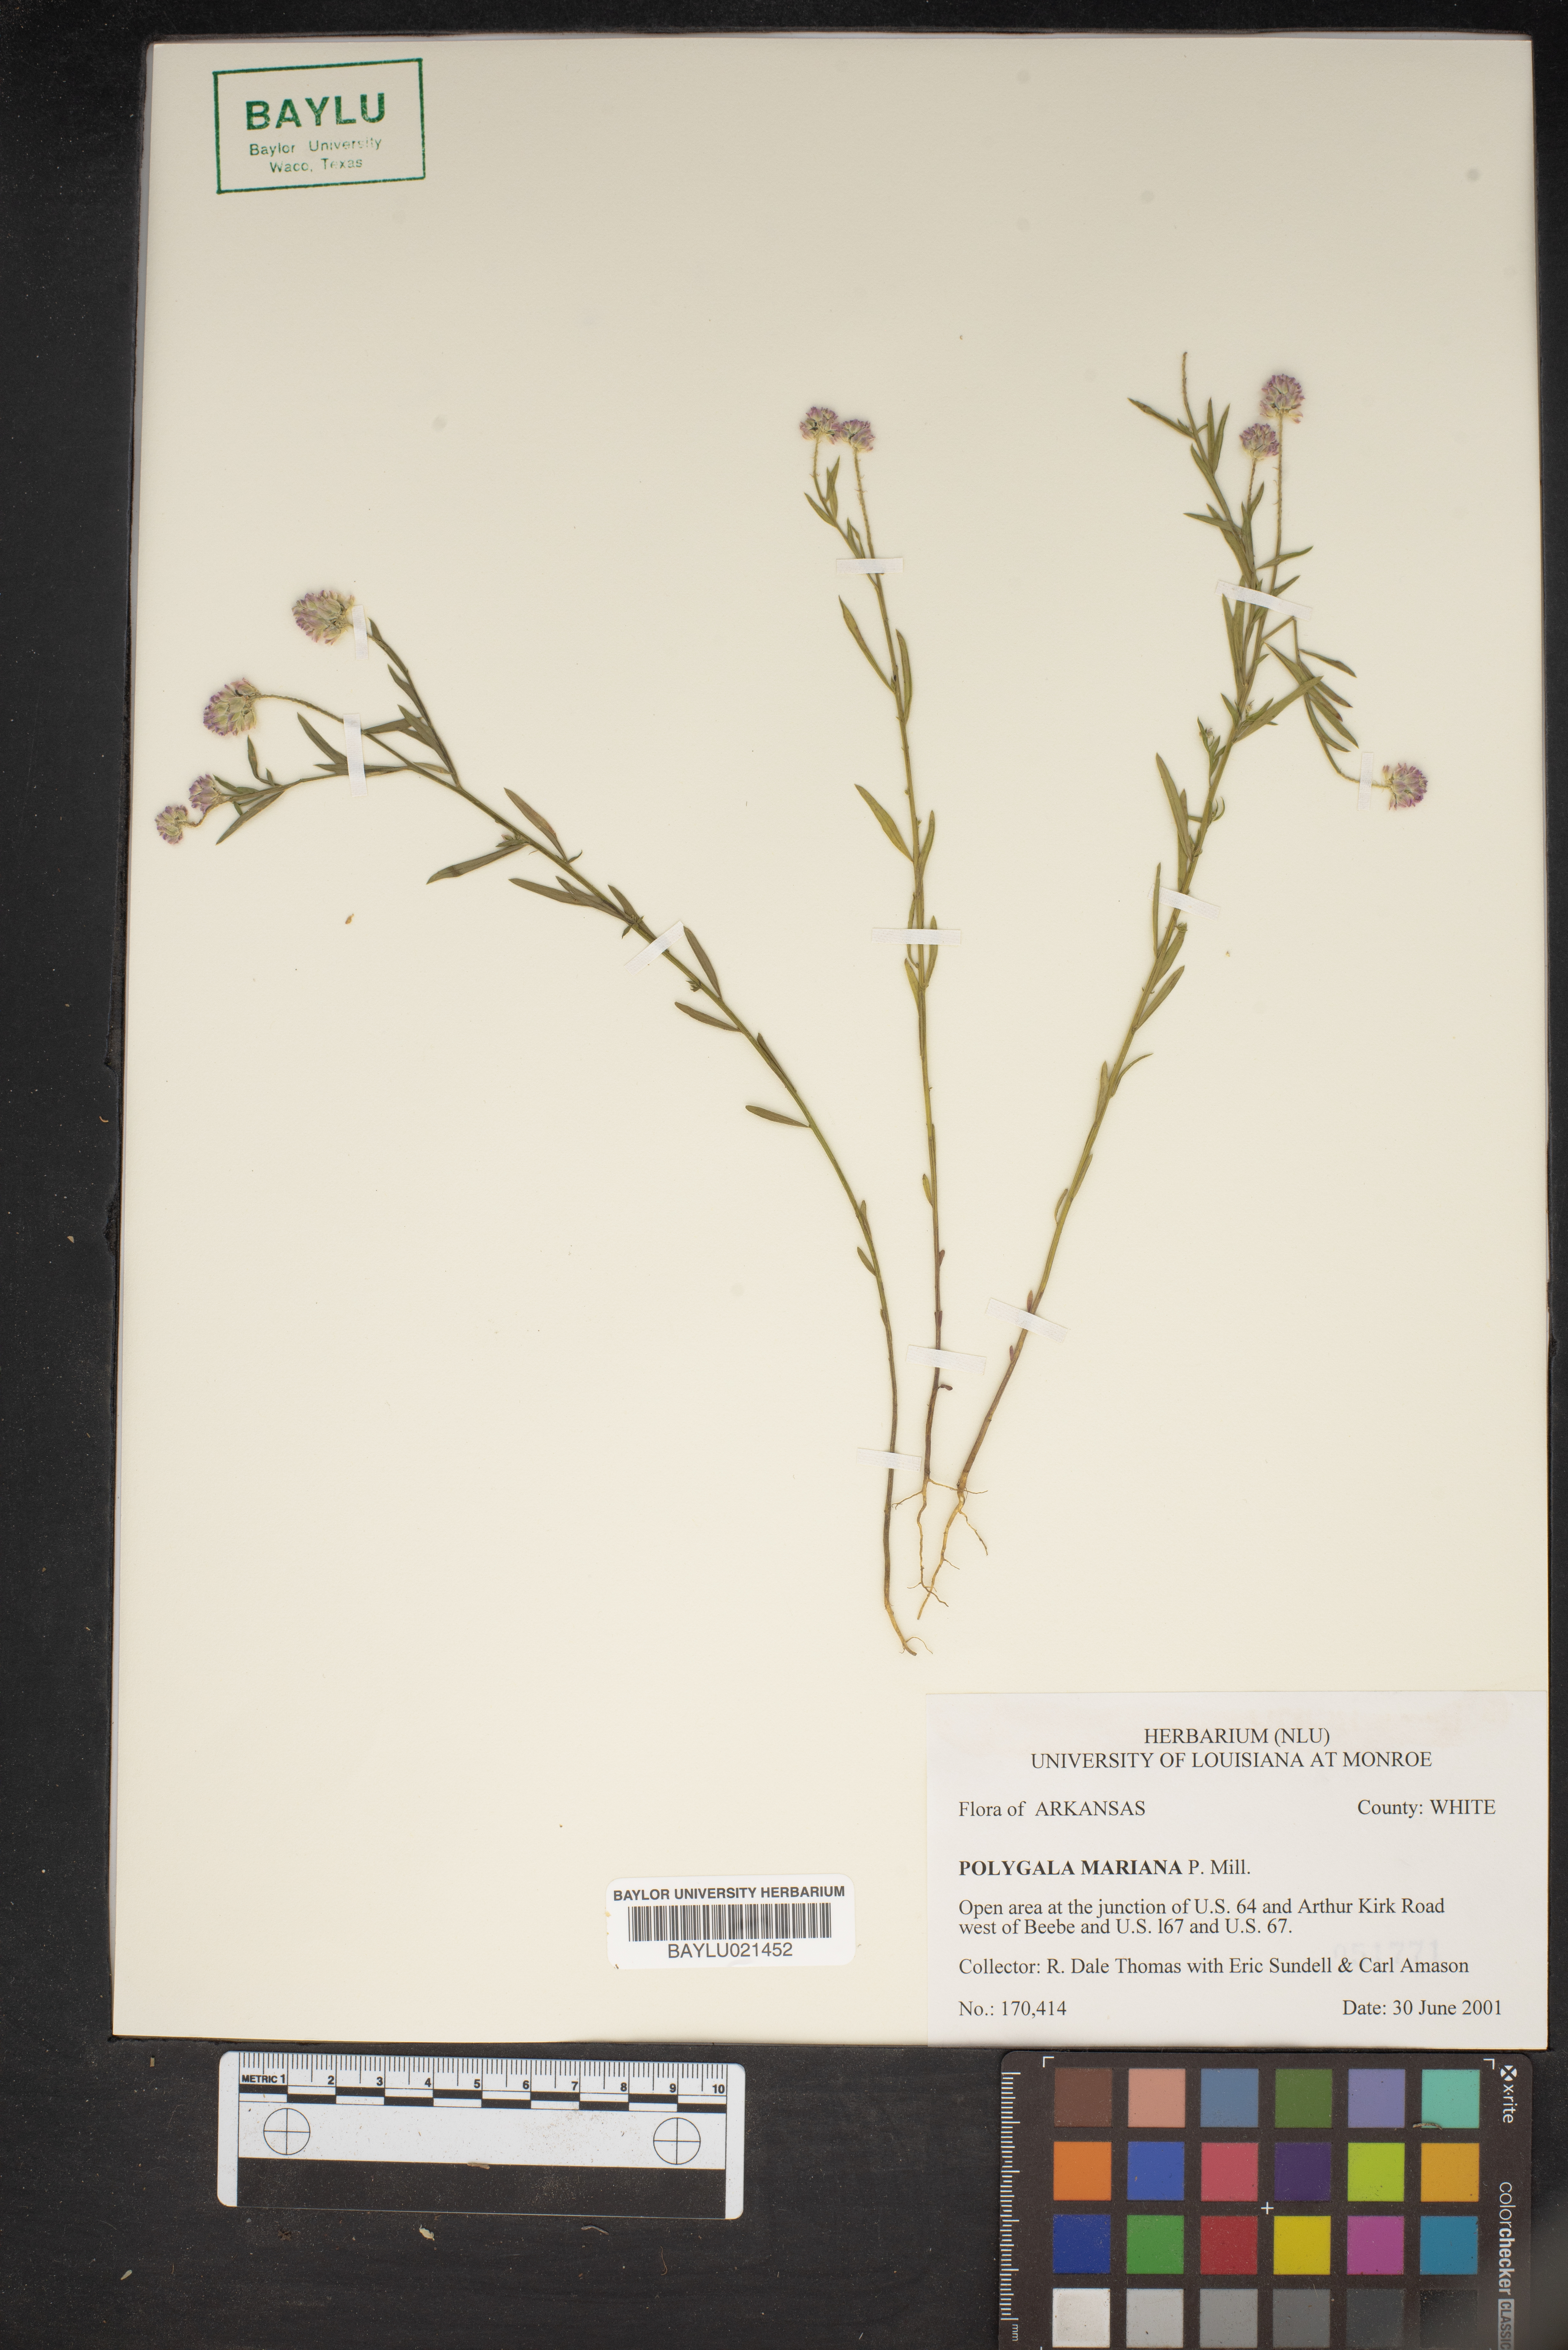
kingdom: Plantae
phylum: Tracheophyta
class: Magnoliopsida
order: Fabales
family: Polygalaceae
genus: Polygala
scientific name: Polygala mariana
